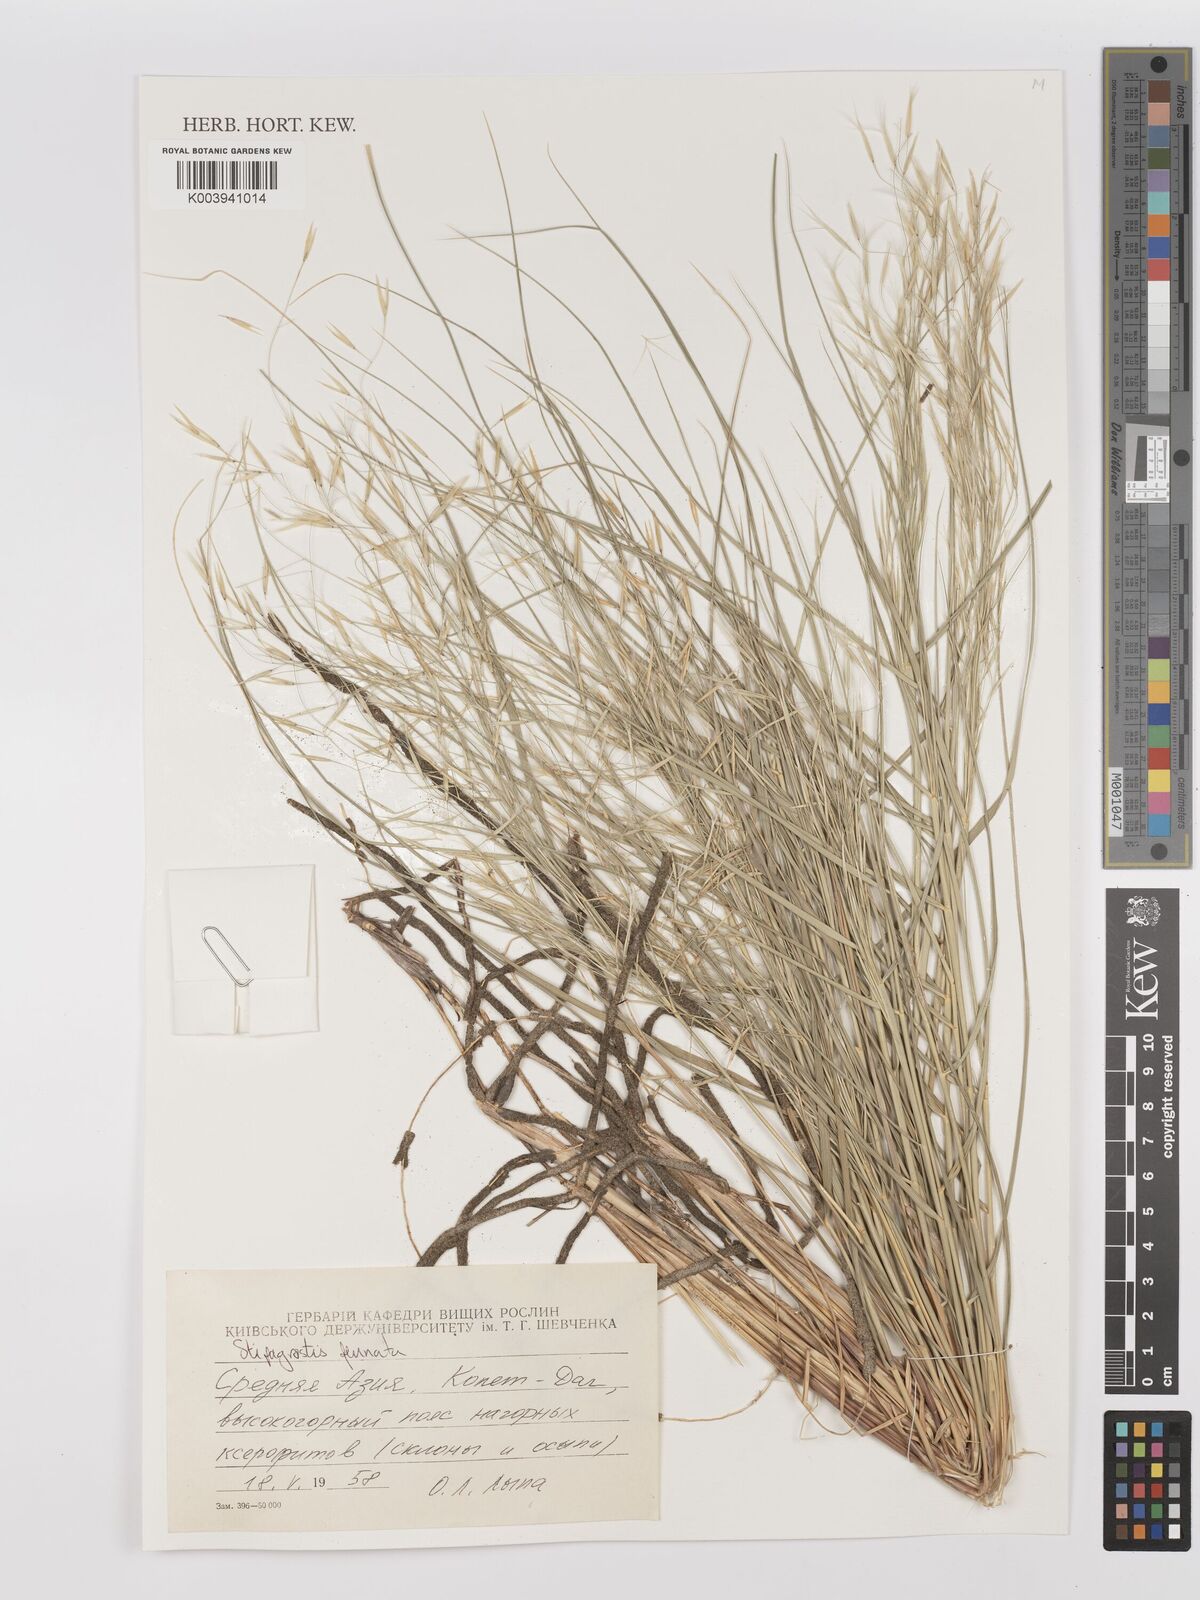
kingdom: Plantae
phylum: Tracheophyta
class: Liliopsida
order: Poales
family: Poaceae
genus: Stipagrostis
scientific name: Stipagrostis pennata
